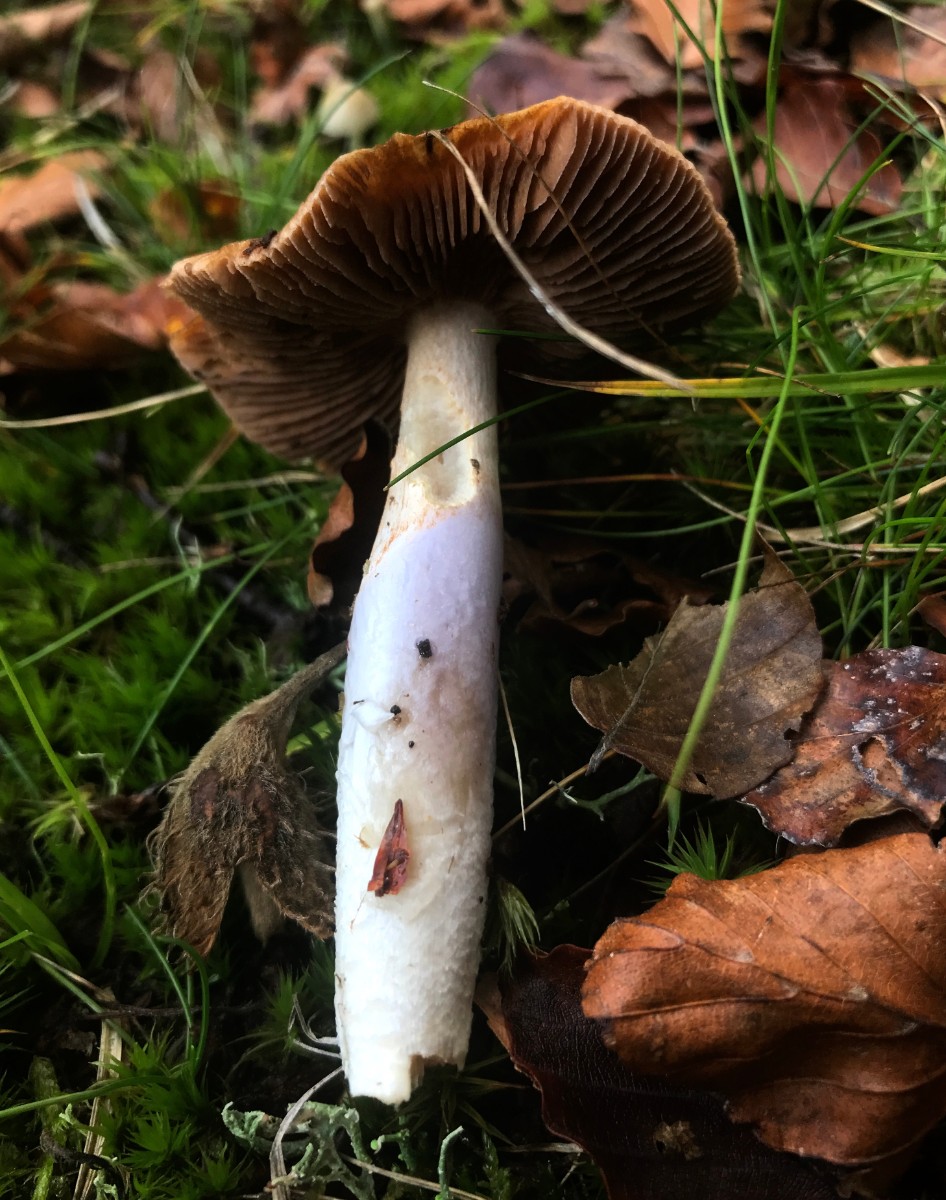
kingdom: Fungi
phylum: Basidiomycota
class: Agaricomycetes
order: Agaricales
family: Cortinariaceae
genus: Cortinarius
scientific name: Cortinarius elatior
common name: høj slørhat
